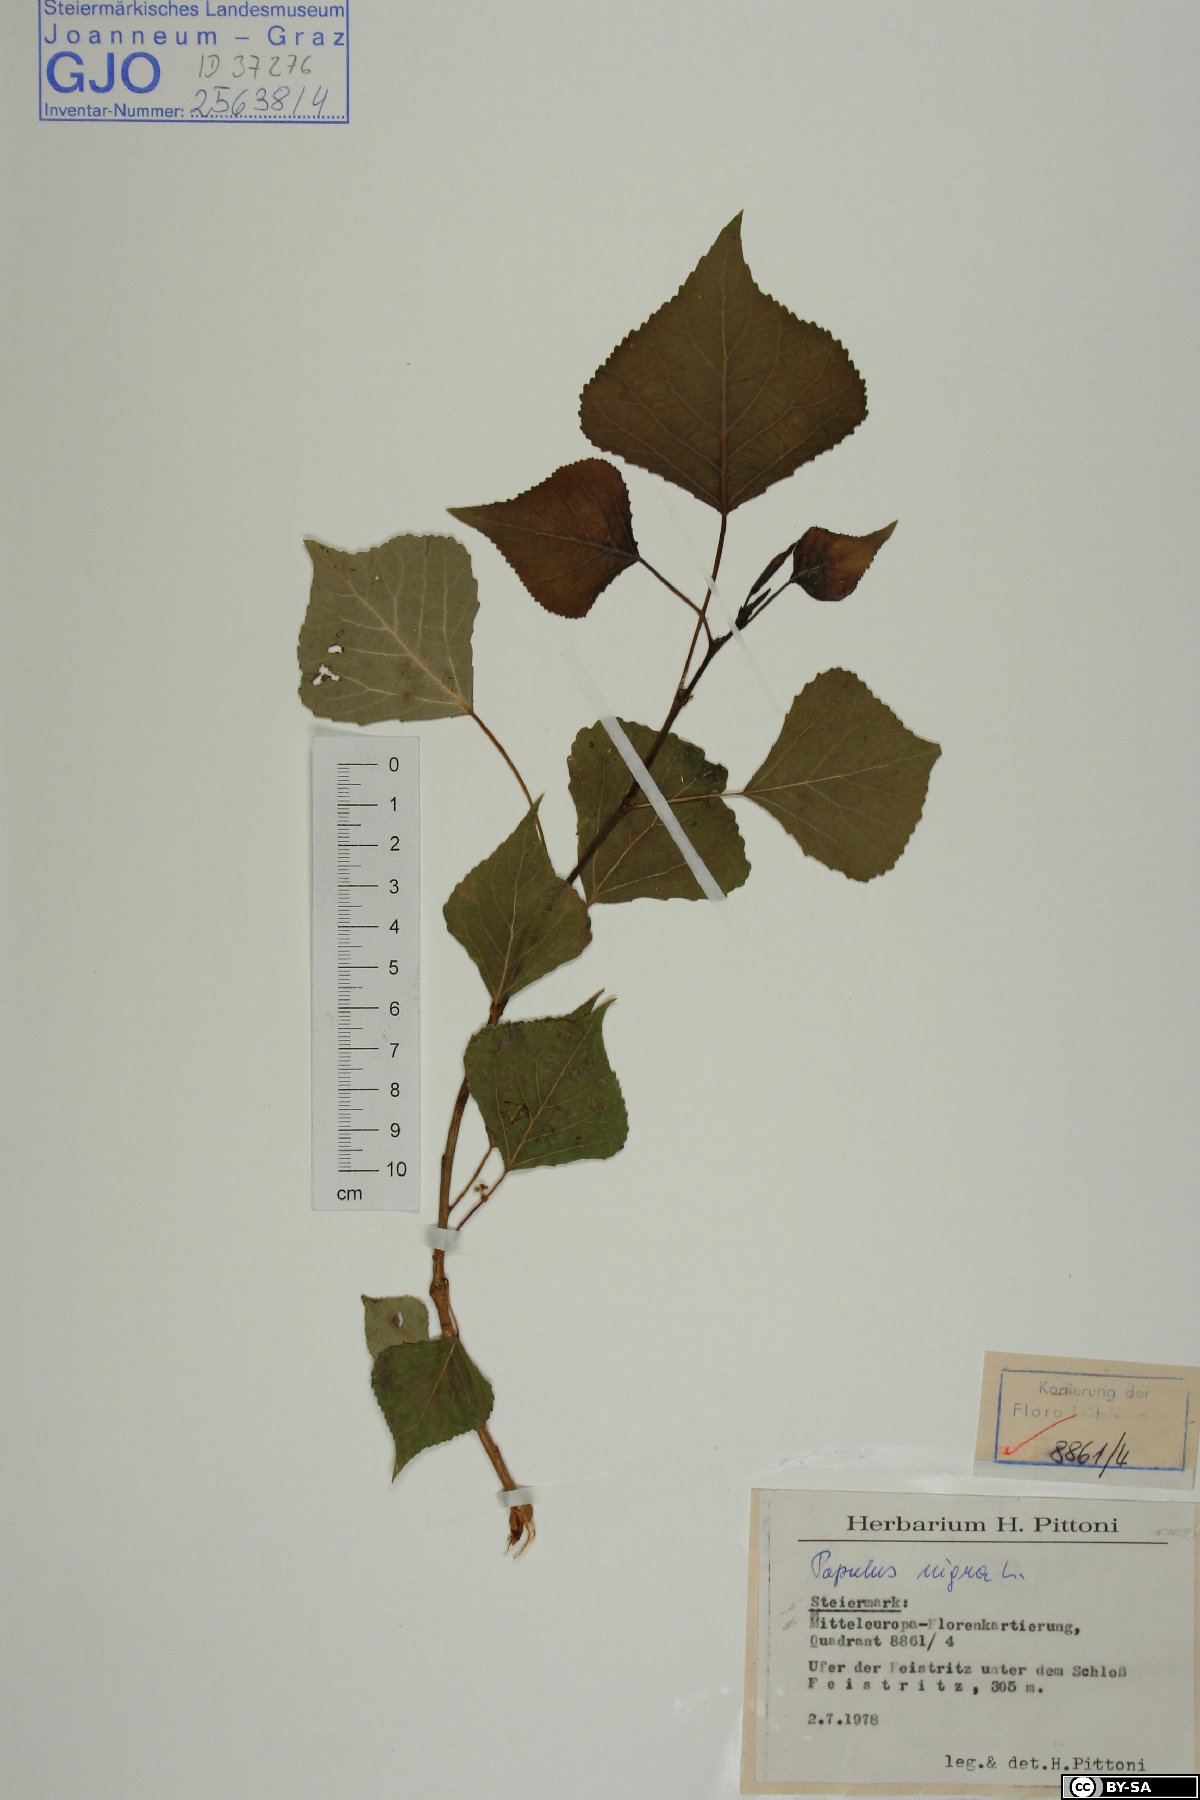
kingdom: Plantae
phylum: Tracheophyta
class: Magnoliopsida
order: Malpighiales
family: Salicaceae
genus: Populus
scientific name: Populus nigra
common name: Black poplar
